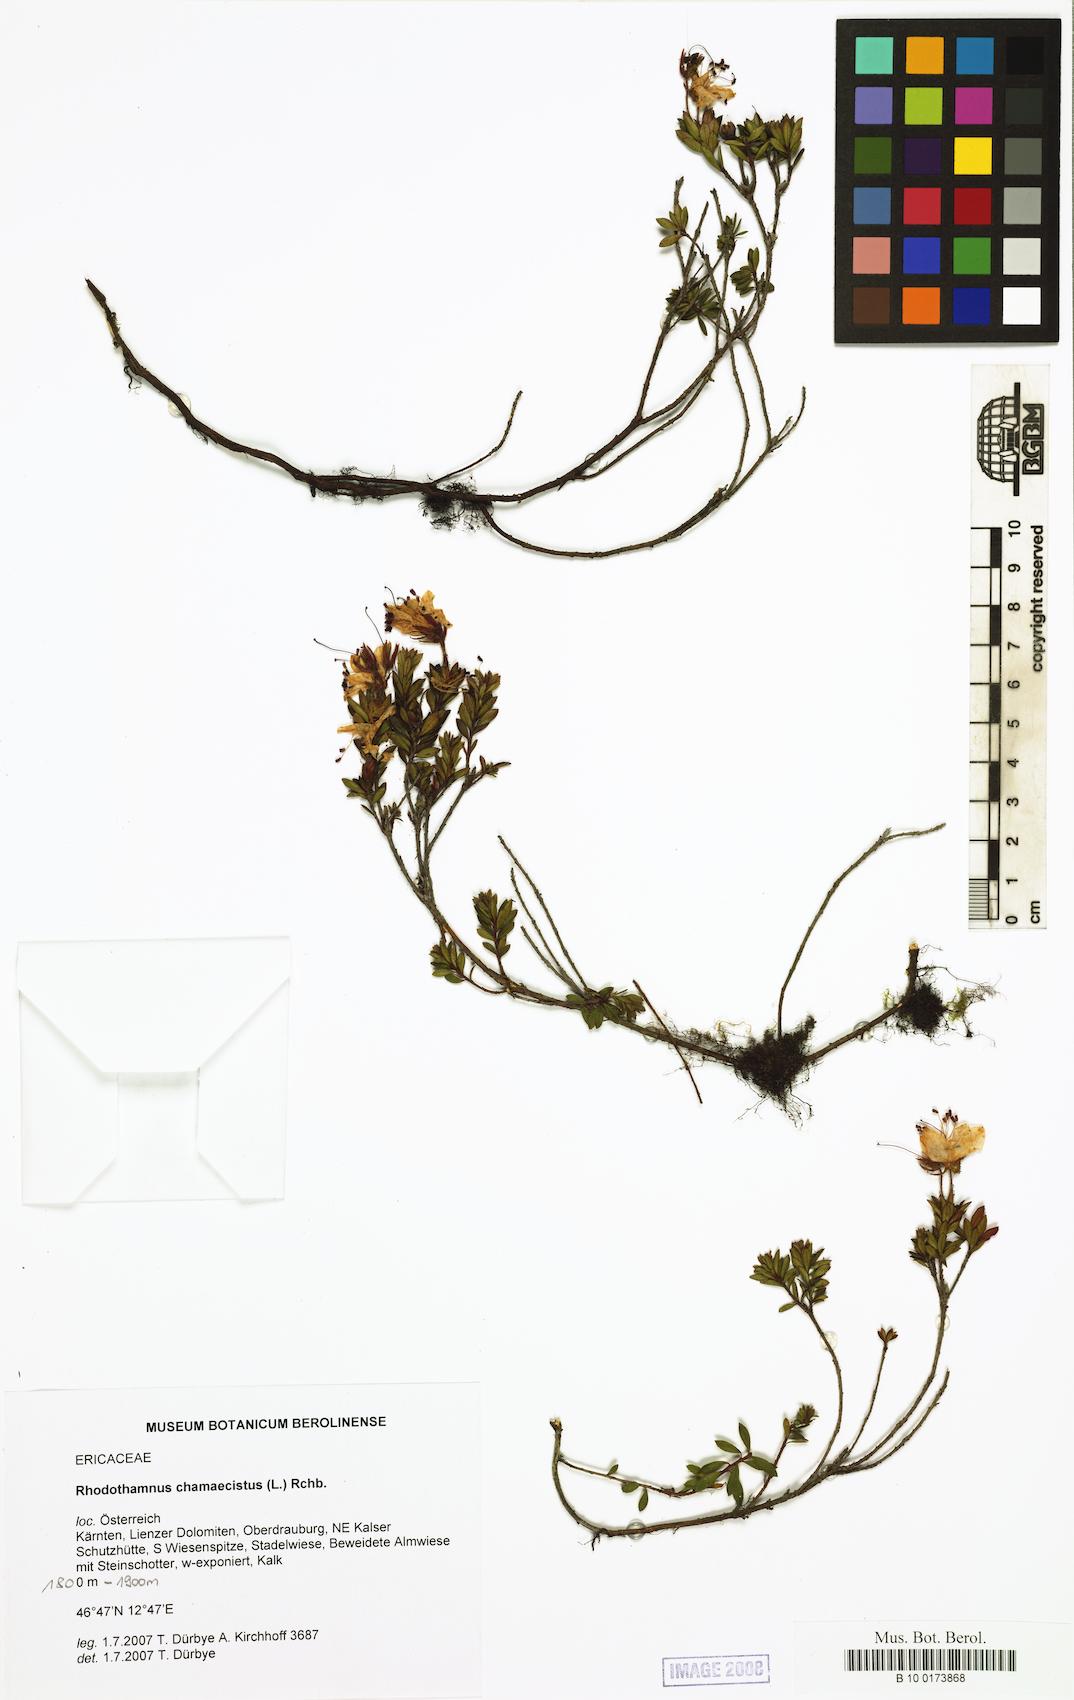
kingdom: Plantae
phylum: Tracheophyta
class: Magnoliopsida
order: Ericales
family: Ericaceae
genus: Rhodothamnus
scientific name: Rhodothamnus chamaecistus
